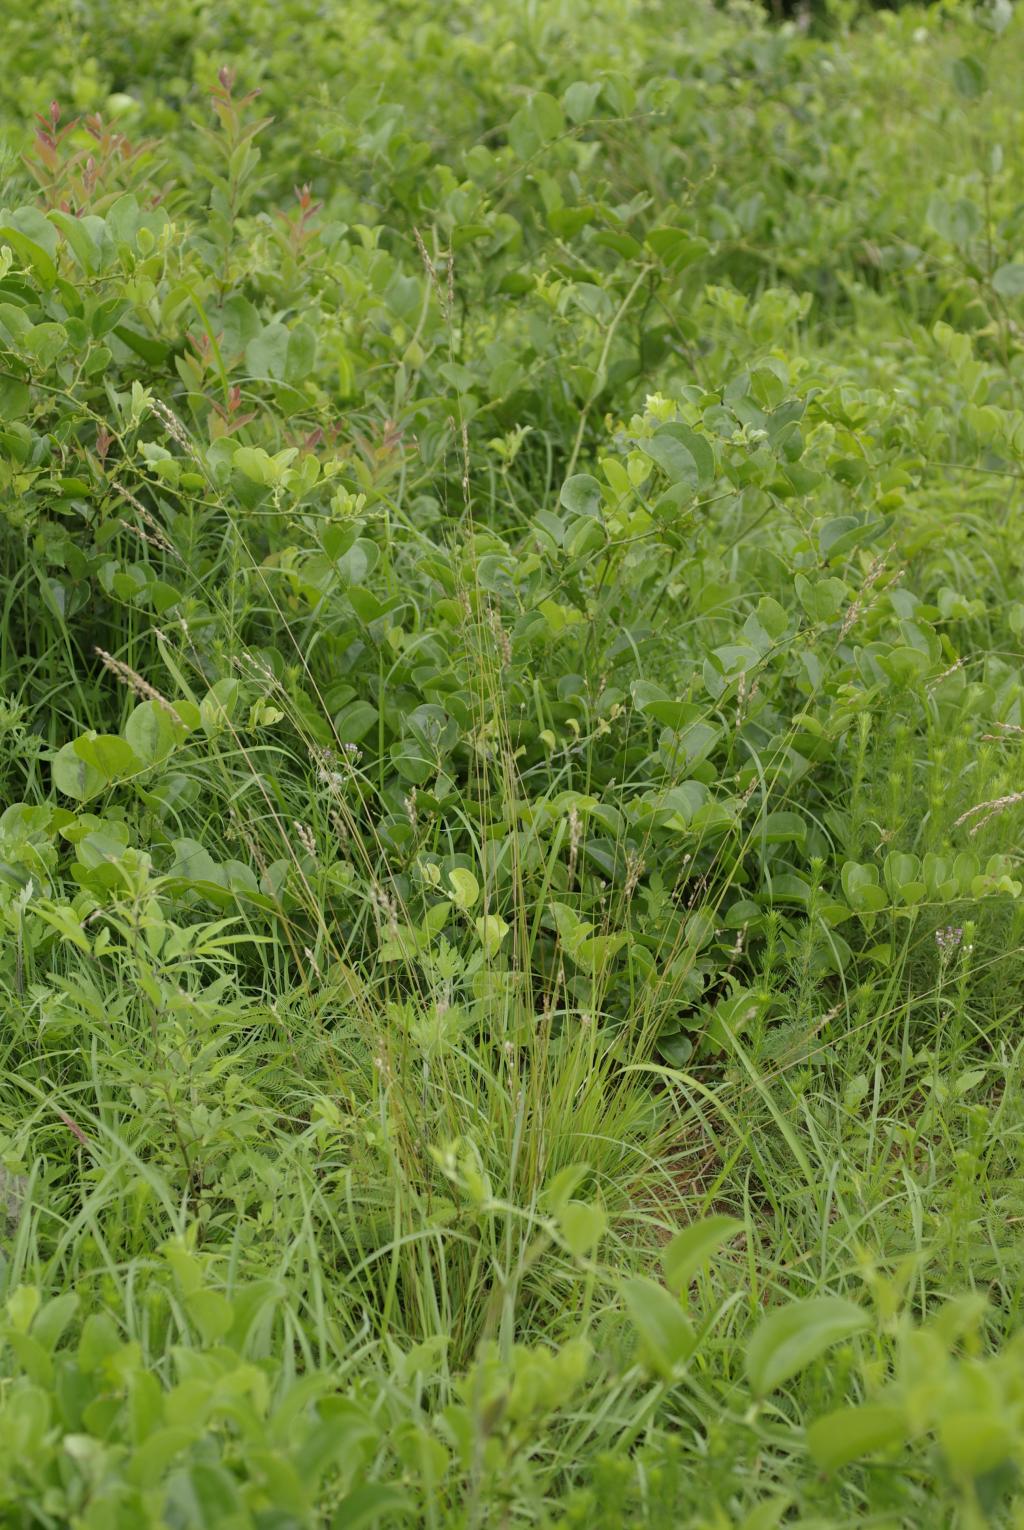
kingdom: Plantae
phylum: Tracheophyta
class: Liliopsida
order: Poales
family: Poaceae
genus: Alloteropsis
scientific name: Alloteropsis semialata
